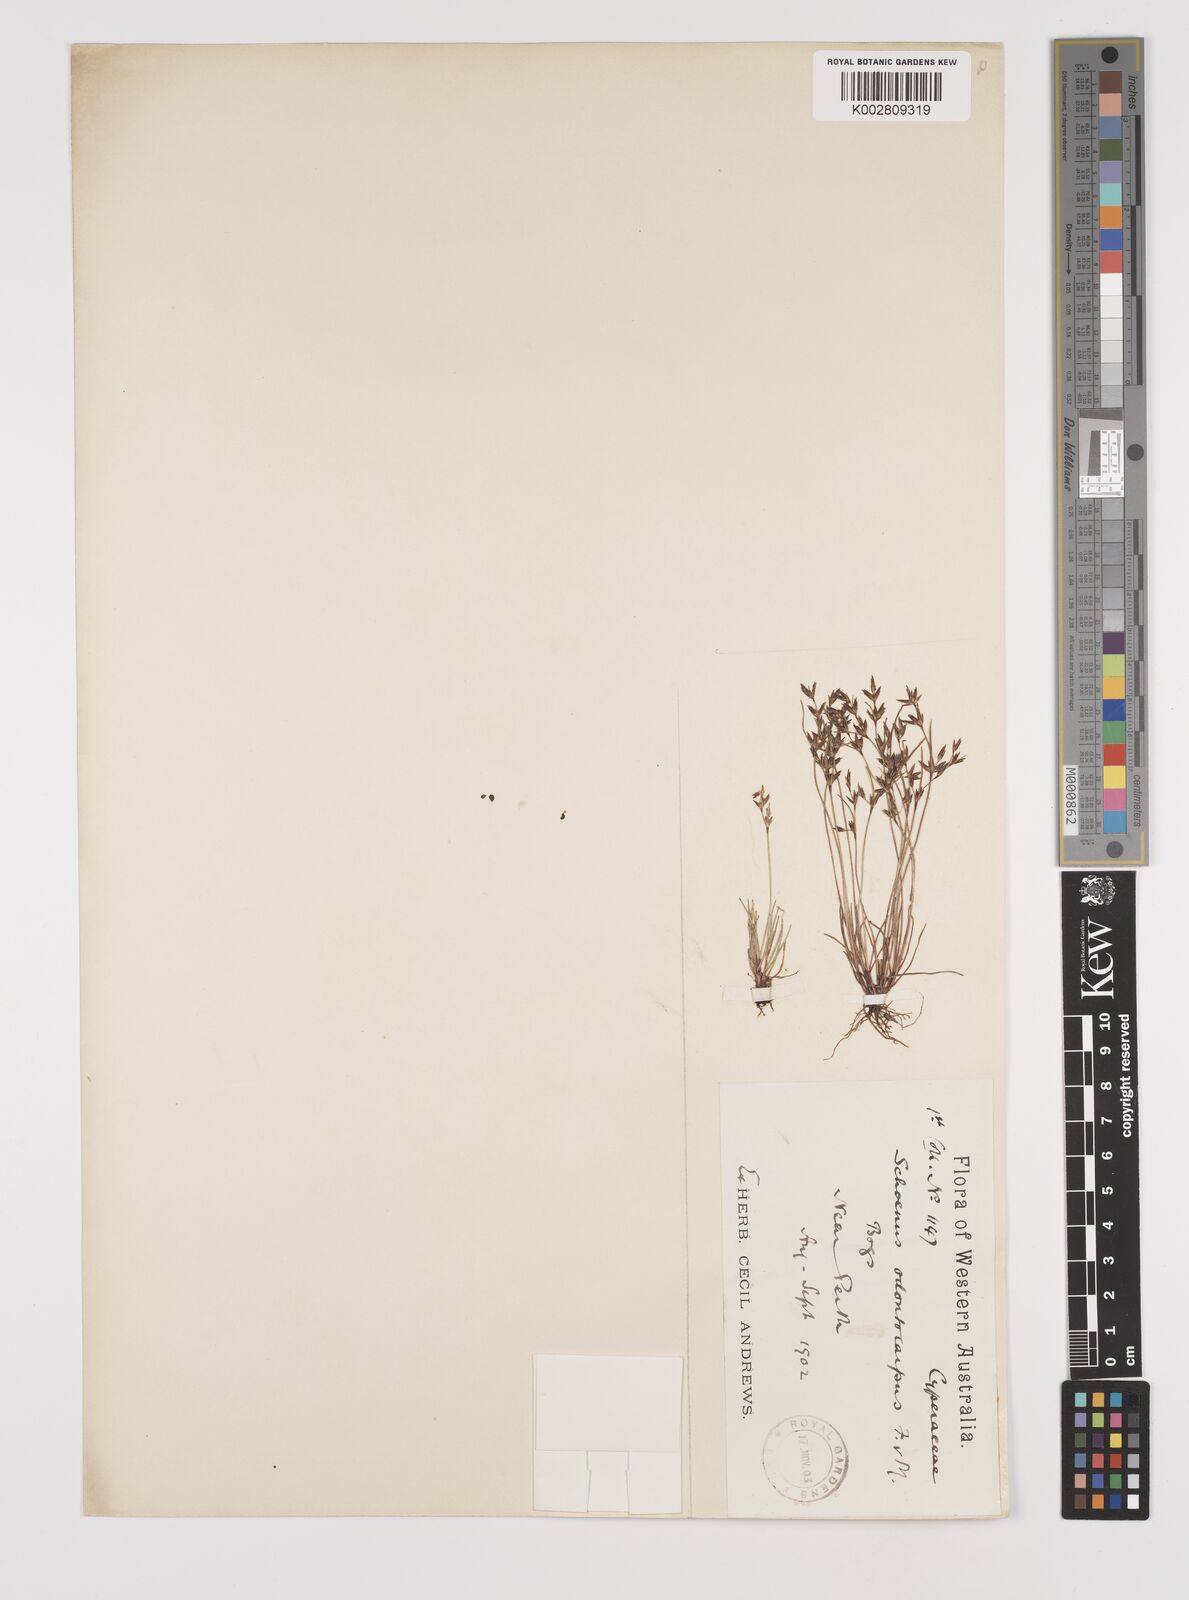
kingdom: Plantae
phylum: Tracheophyta
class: Liliopsida
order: Poales
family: Cyperaceae
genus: Schoenus
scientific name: Schoenus odontocarpus
